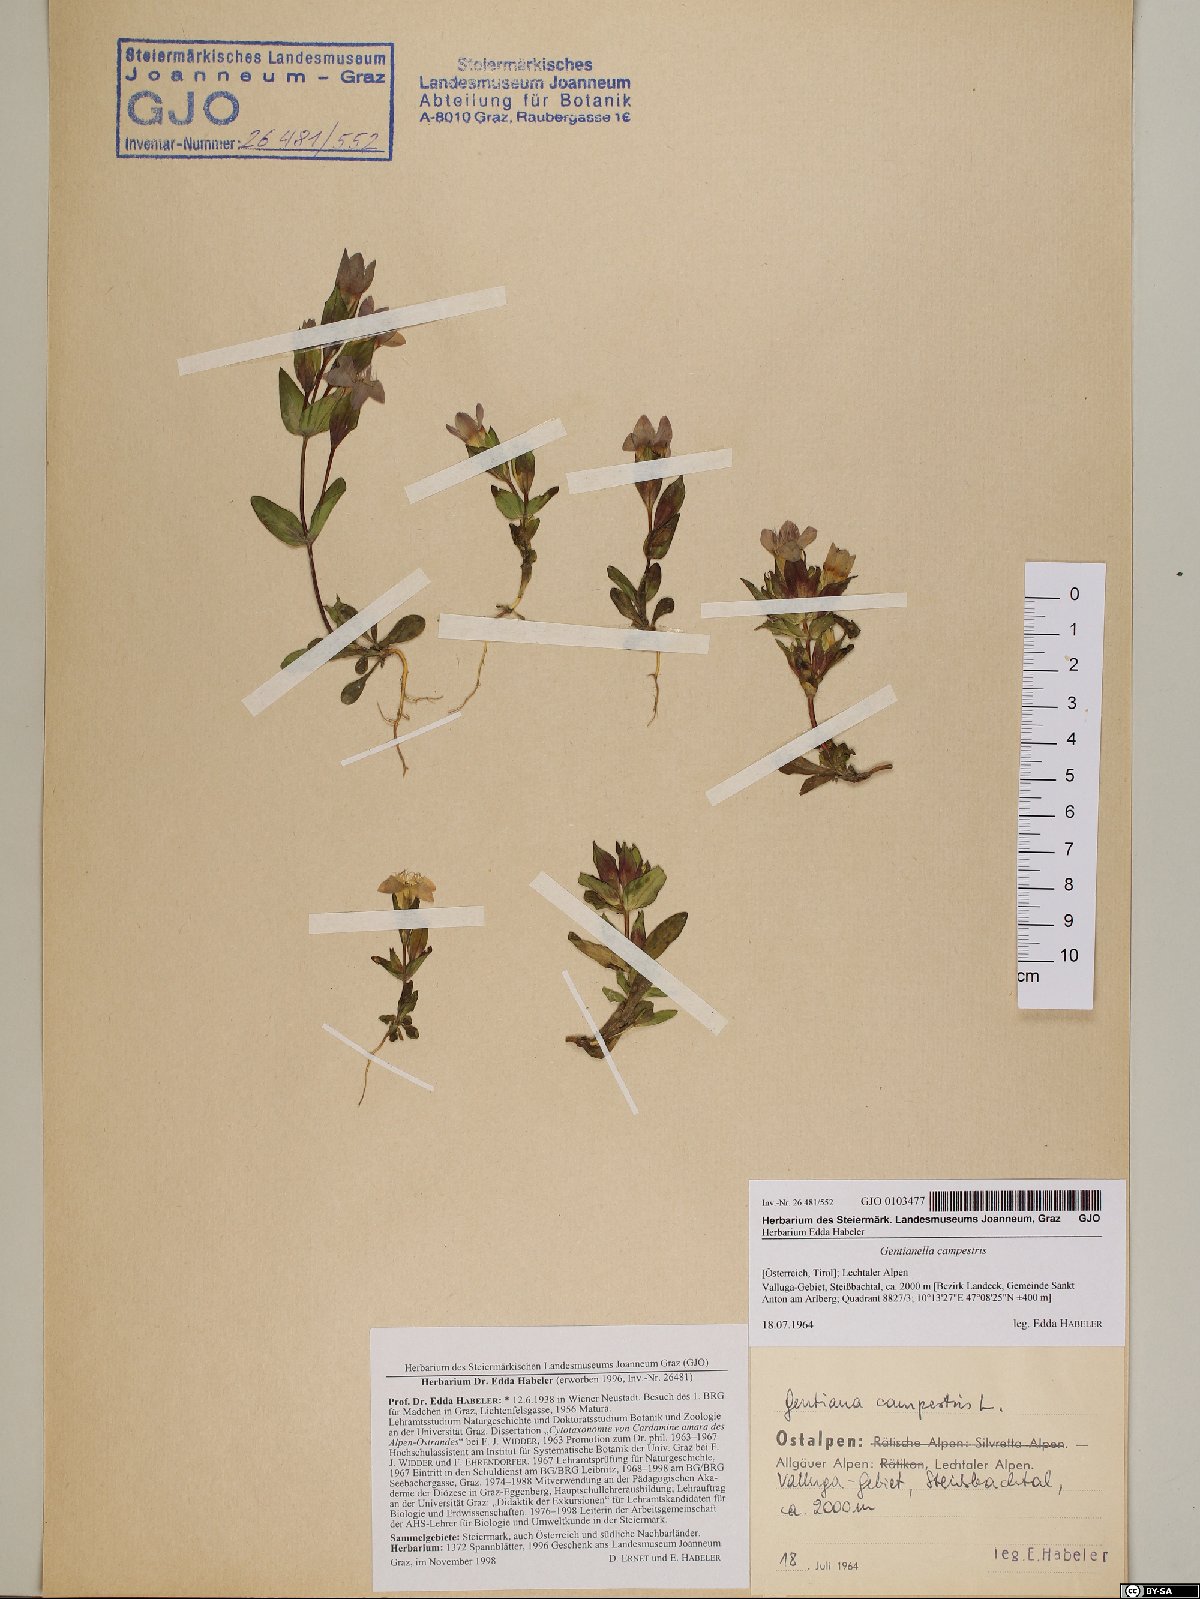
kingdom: Plantae
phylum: Tracheophyta
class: Magnoliopsida
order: Gentianales
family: Gentianaceae
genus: Gentianella
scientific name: Gentianella campestris
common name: Field gentian
